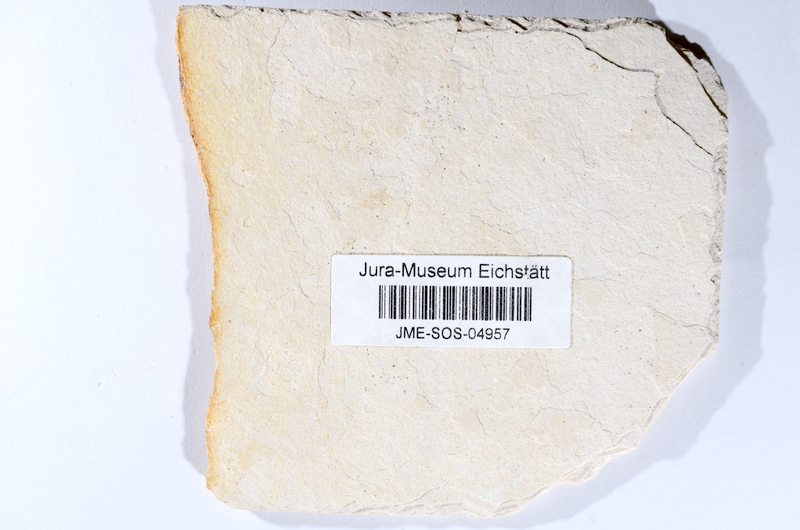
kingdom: Animalia
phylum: Chordata
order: Salmoniformes
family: Orthogonikleithridae
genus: Orthogonikleithrus
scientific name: Orthogonikleithrus hoelli
